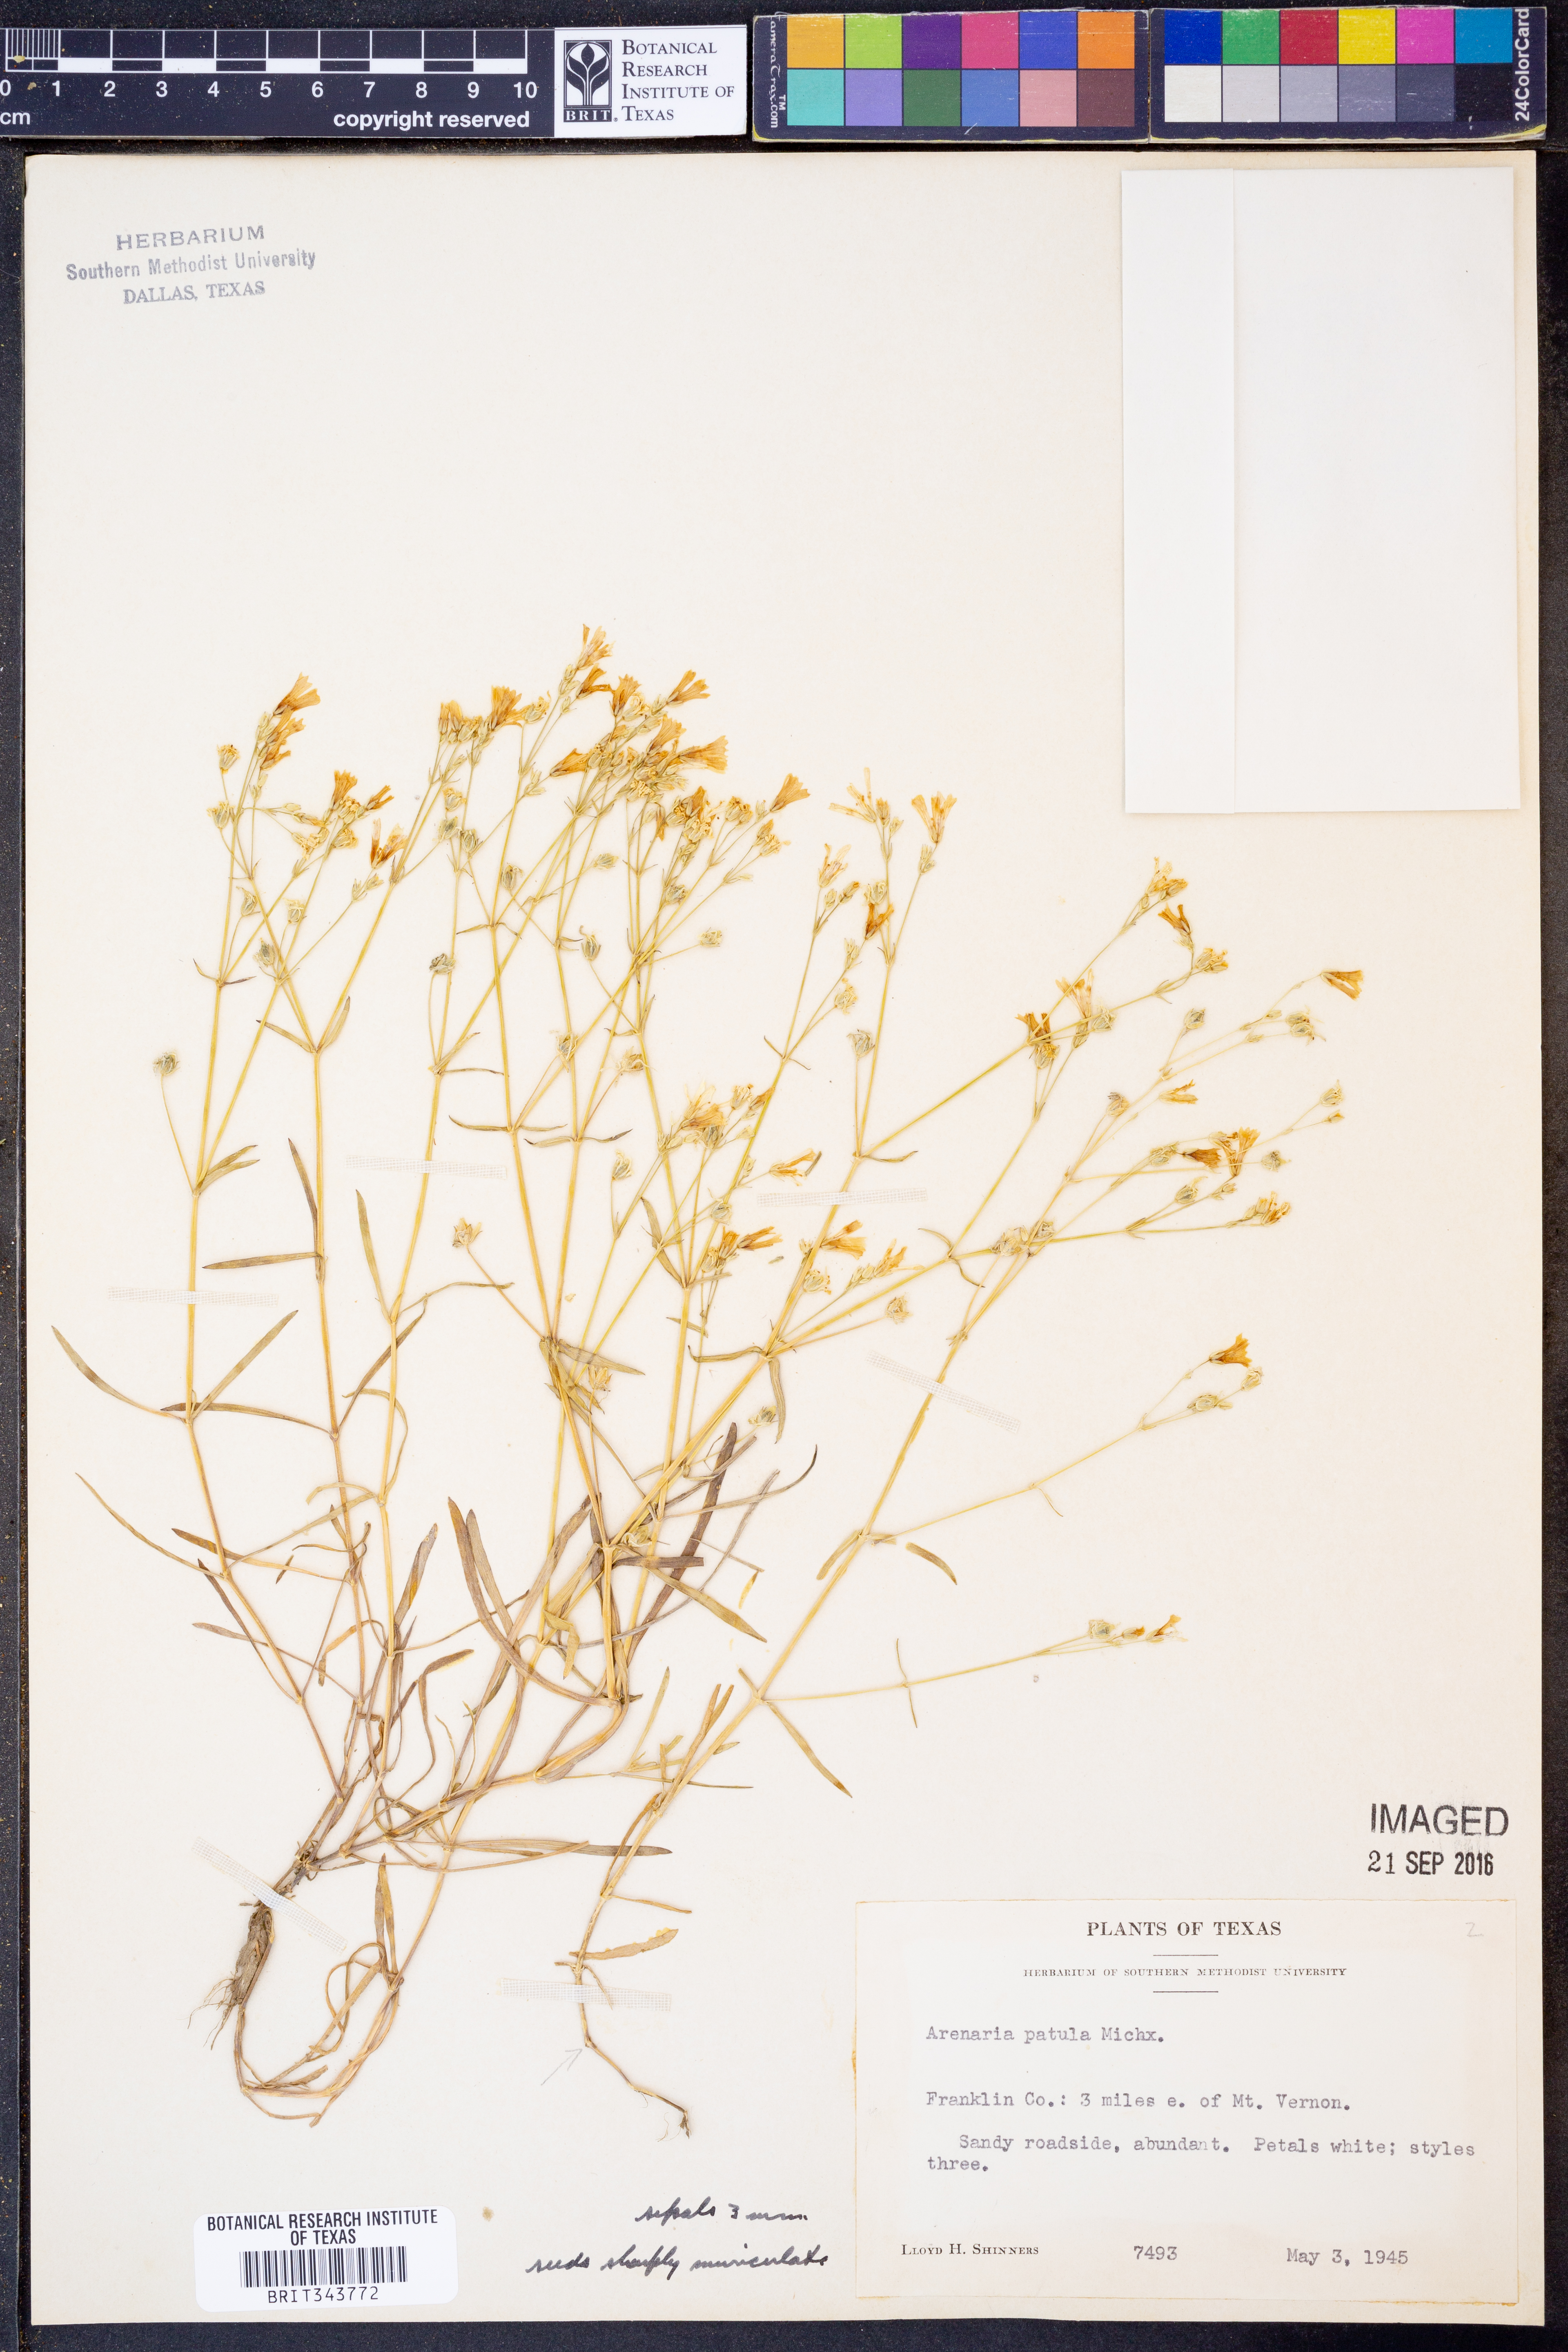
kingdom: Plantae
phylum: Tracheophyta
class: Magnoliopsida
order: Caryophyllales
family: Caryophyllaceae
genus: Mononeuria
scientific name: Mononeuria patula
